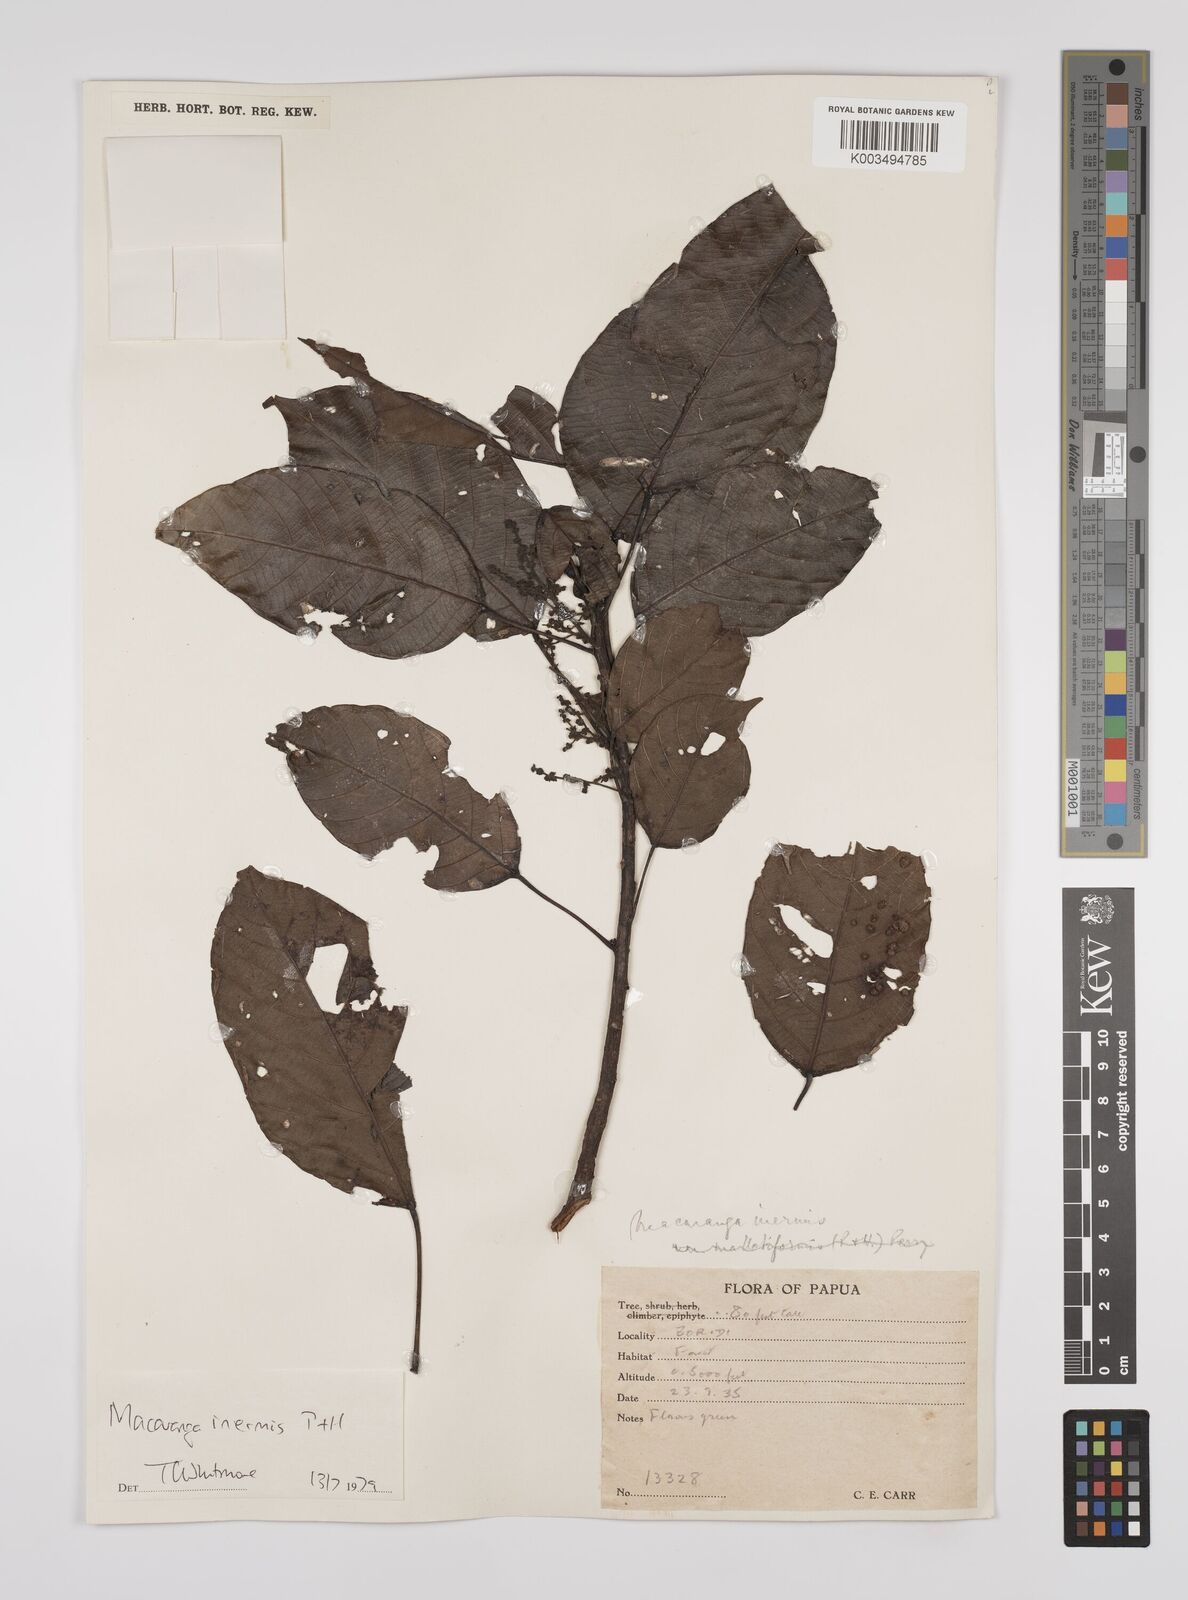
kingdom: Plantae
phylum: Tracheophyta
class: Magnoliopsida
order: Malpighiales
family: Euphorbiaceae
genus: Macaranga
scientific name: Macaranga inermis
